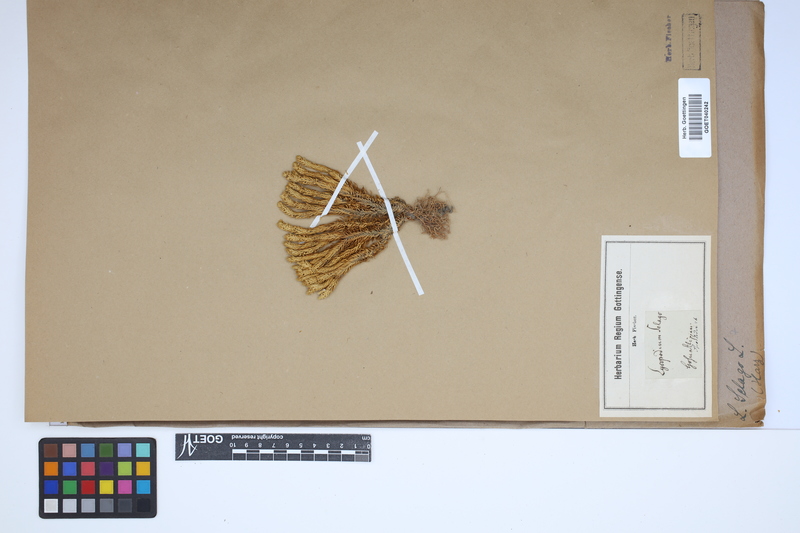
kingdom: Plantae
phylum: Tracheophyta
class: Lycopodiopsida
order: Lycopodiales
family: Lycopodiaceae
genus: Huperzia
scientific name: Huperzia selago
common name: Northern firmoss
